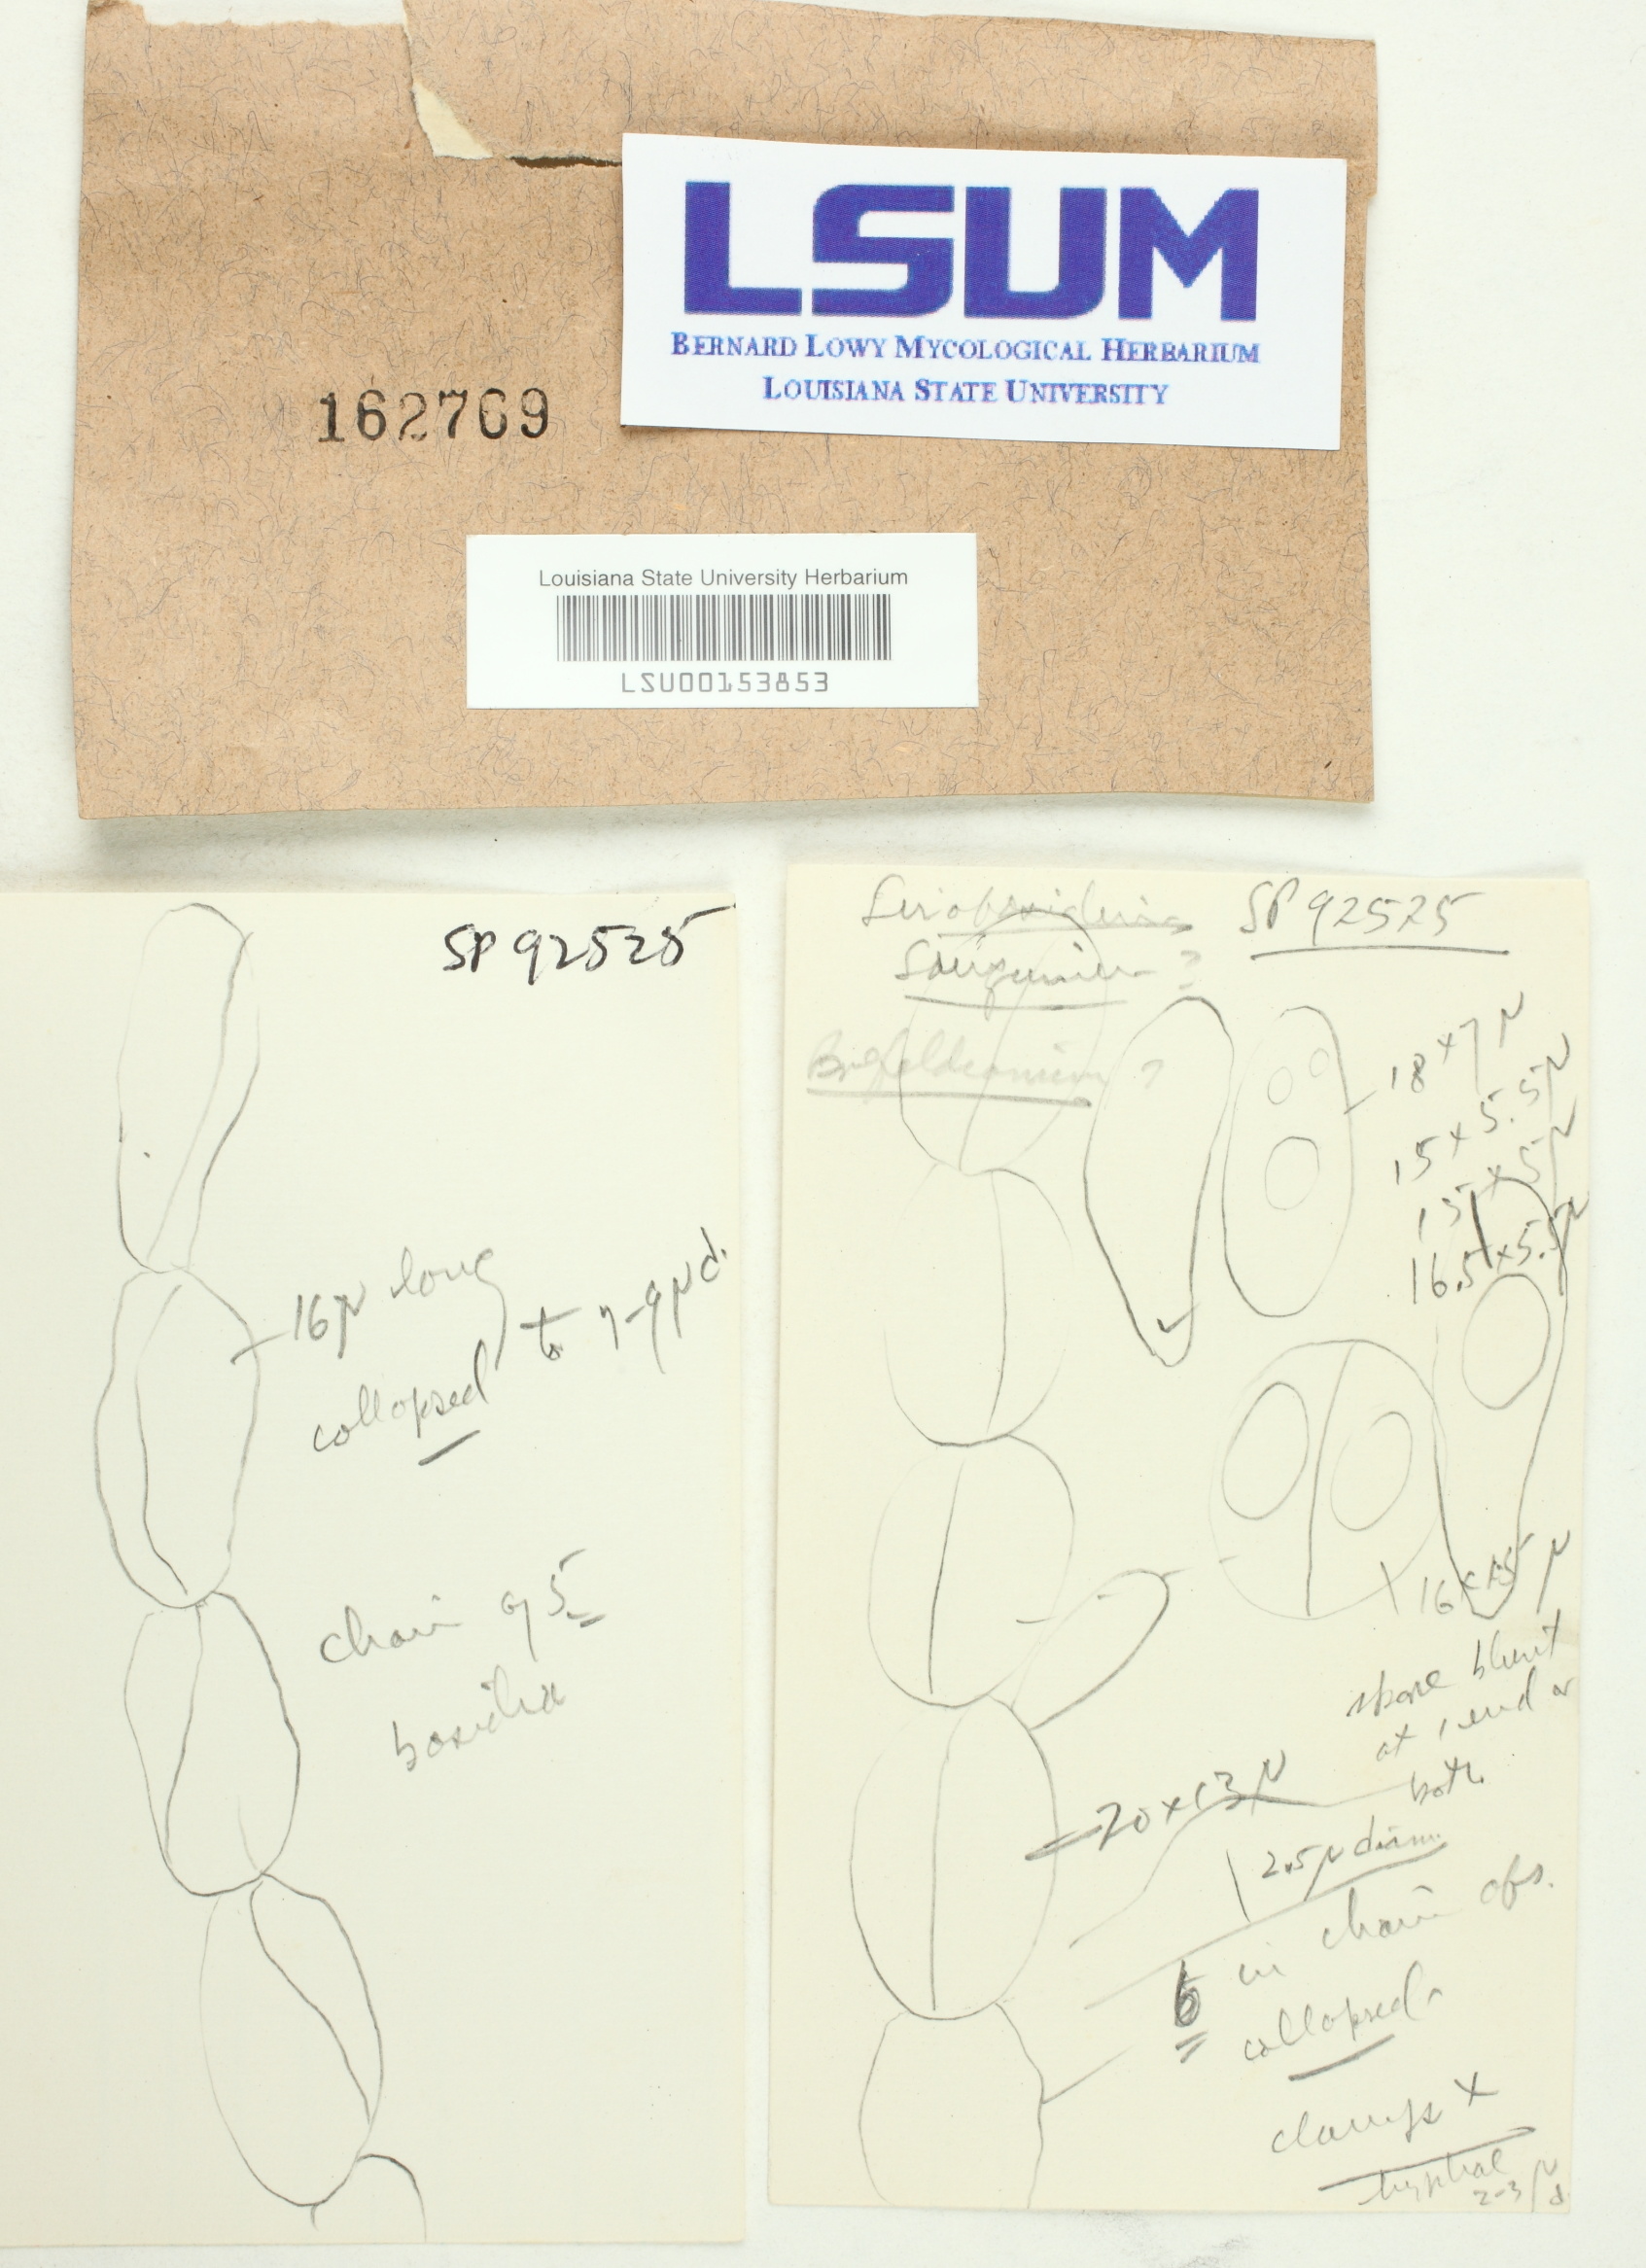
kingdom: Fungi
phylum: Basidiomycota
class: Tremellomycetes
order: Tremellales
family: Sirobasidiaceae
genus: Sirobasidium
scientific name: Sirobasidium sanguineum
